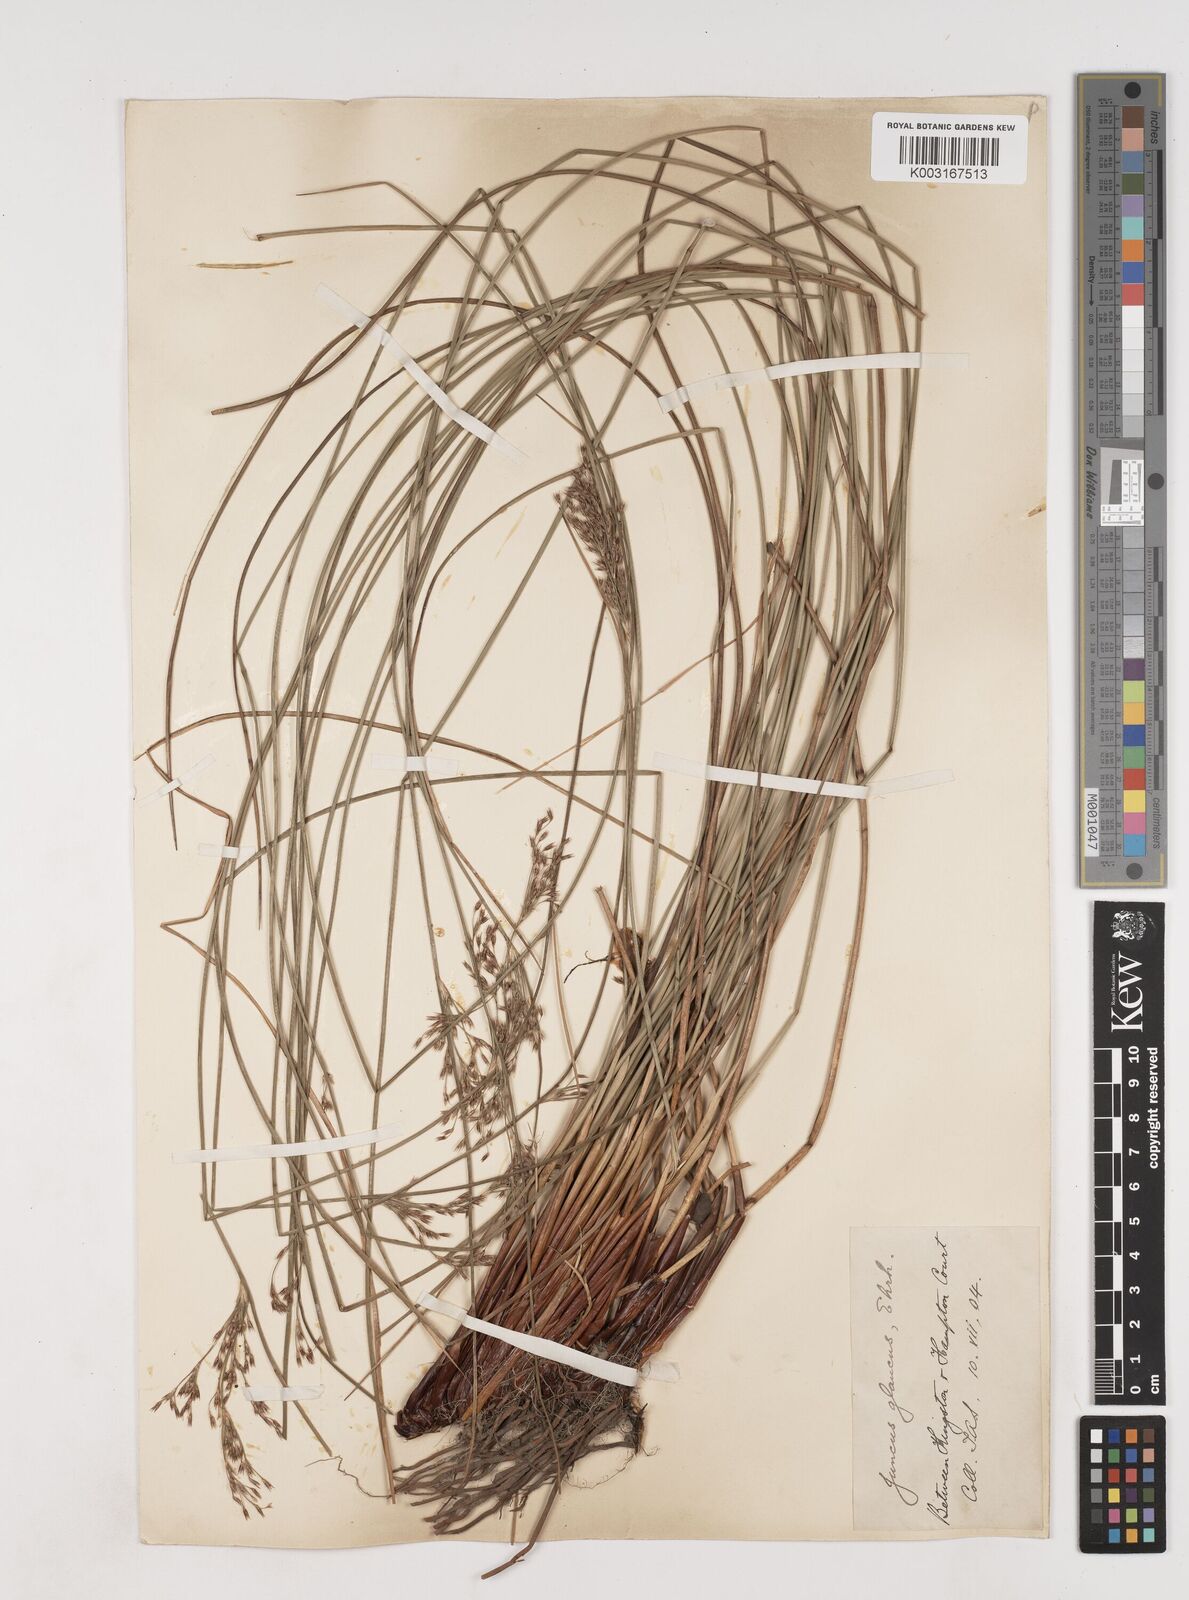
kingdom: Plantae
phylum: Tracheophyta
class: Liliopsida
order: Poales
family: Juncaceae
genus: Juncus
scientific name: Juncus inflexus
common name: Hard rush
